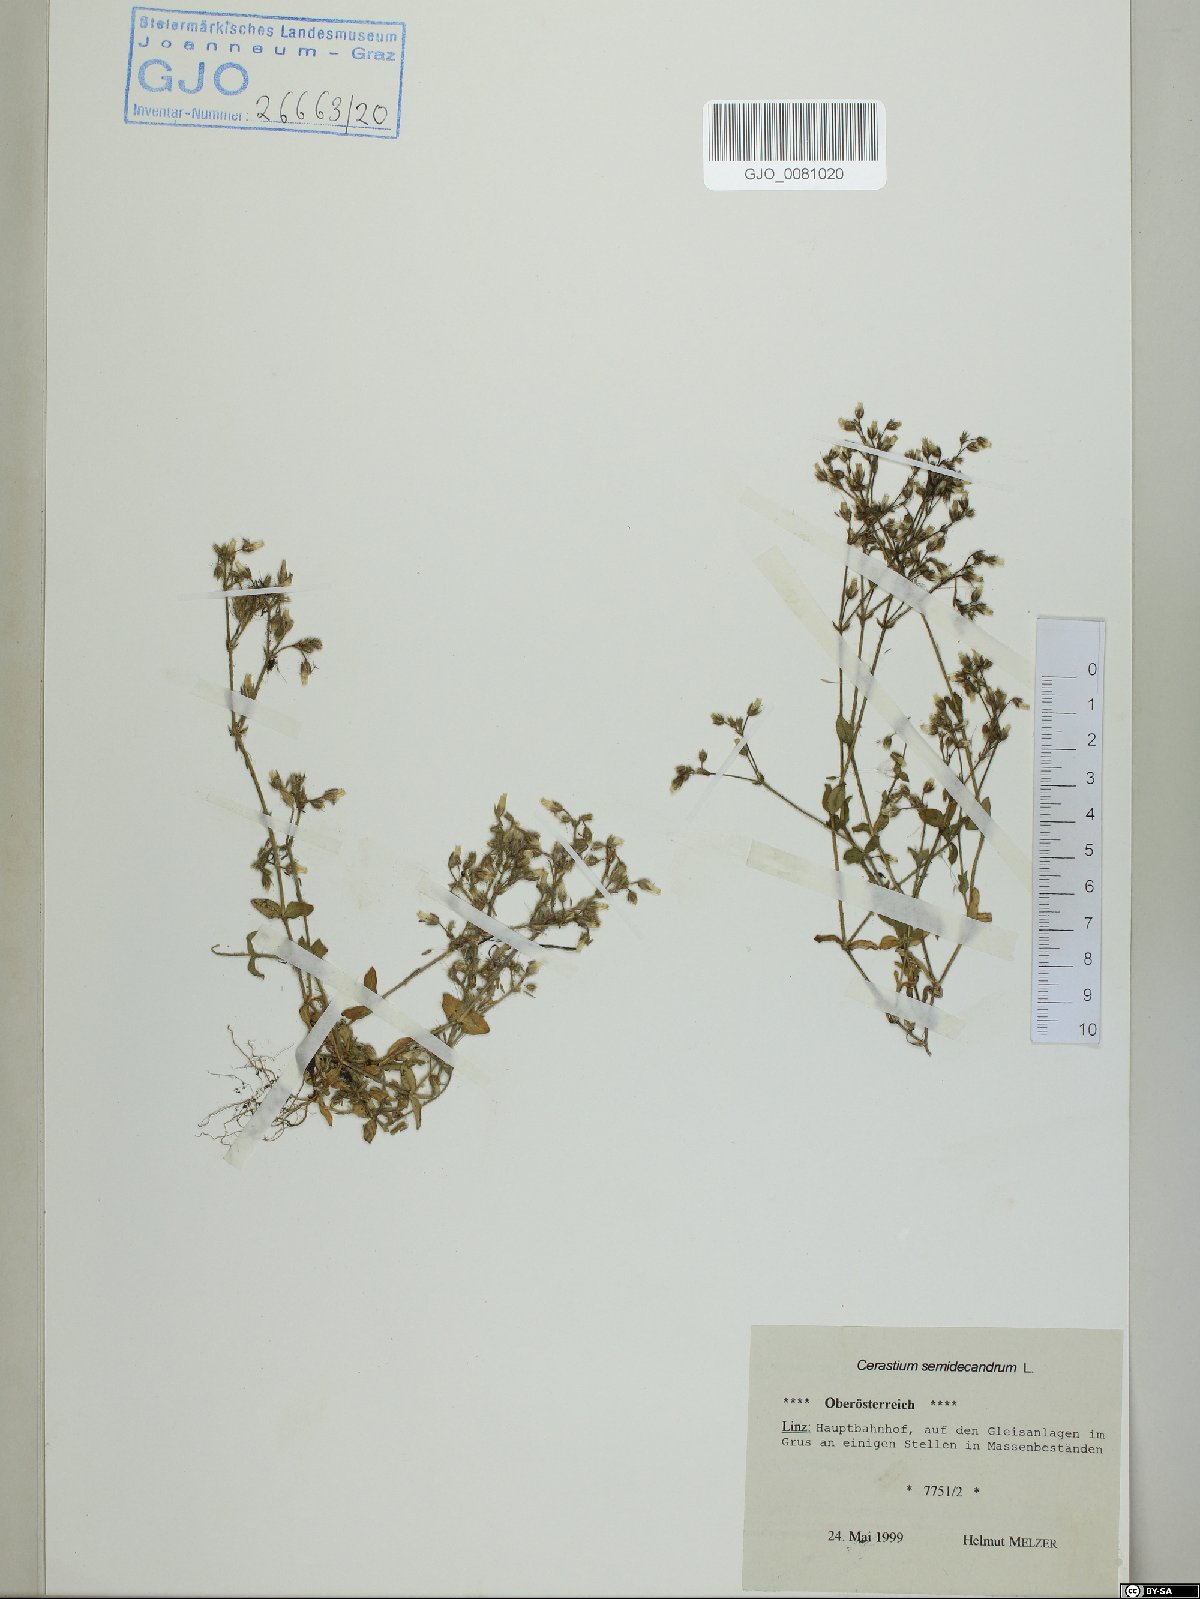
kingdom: Plantae
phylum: Tracheophyta
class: Magnoliopsida
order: Caryophyllales
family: Caryophyllaceae
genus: Cerastium
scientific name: Cerastium semidecandrum
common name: Little mouse-ear
